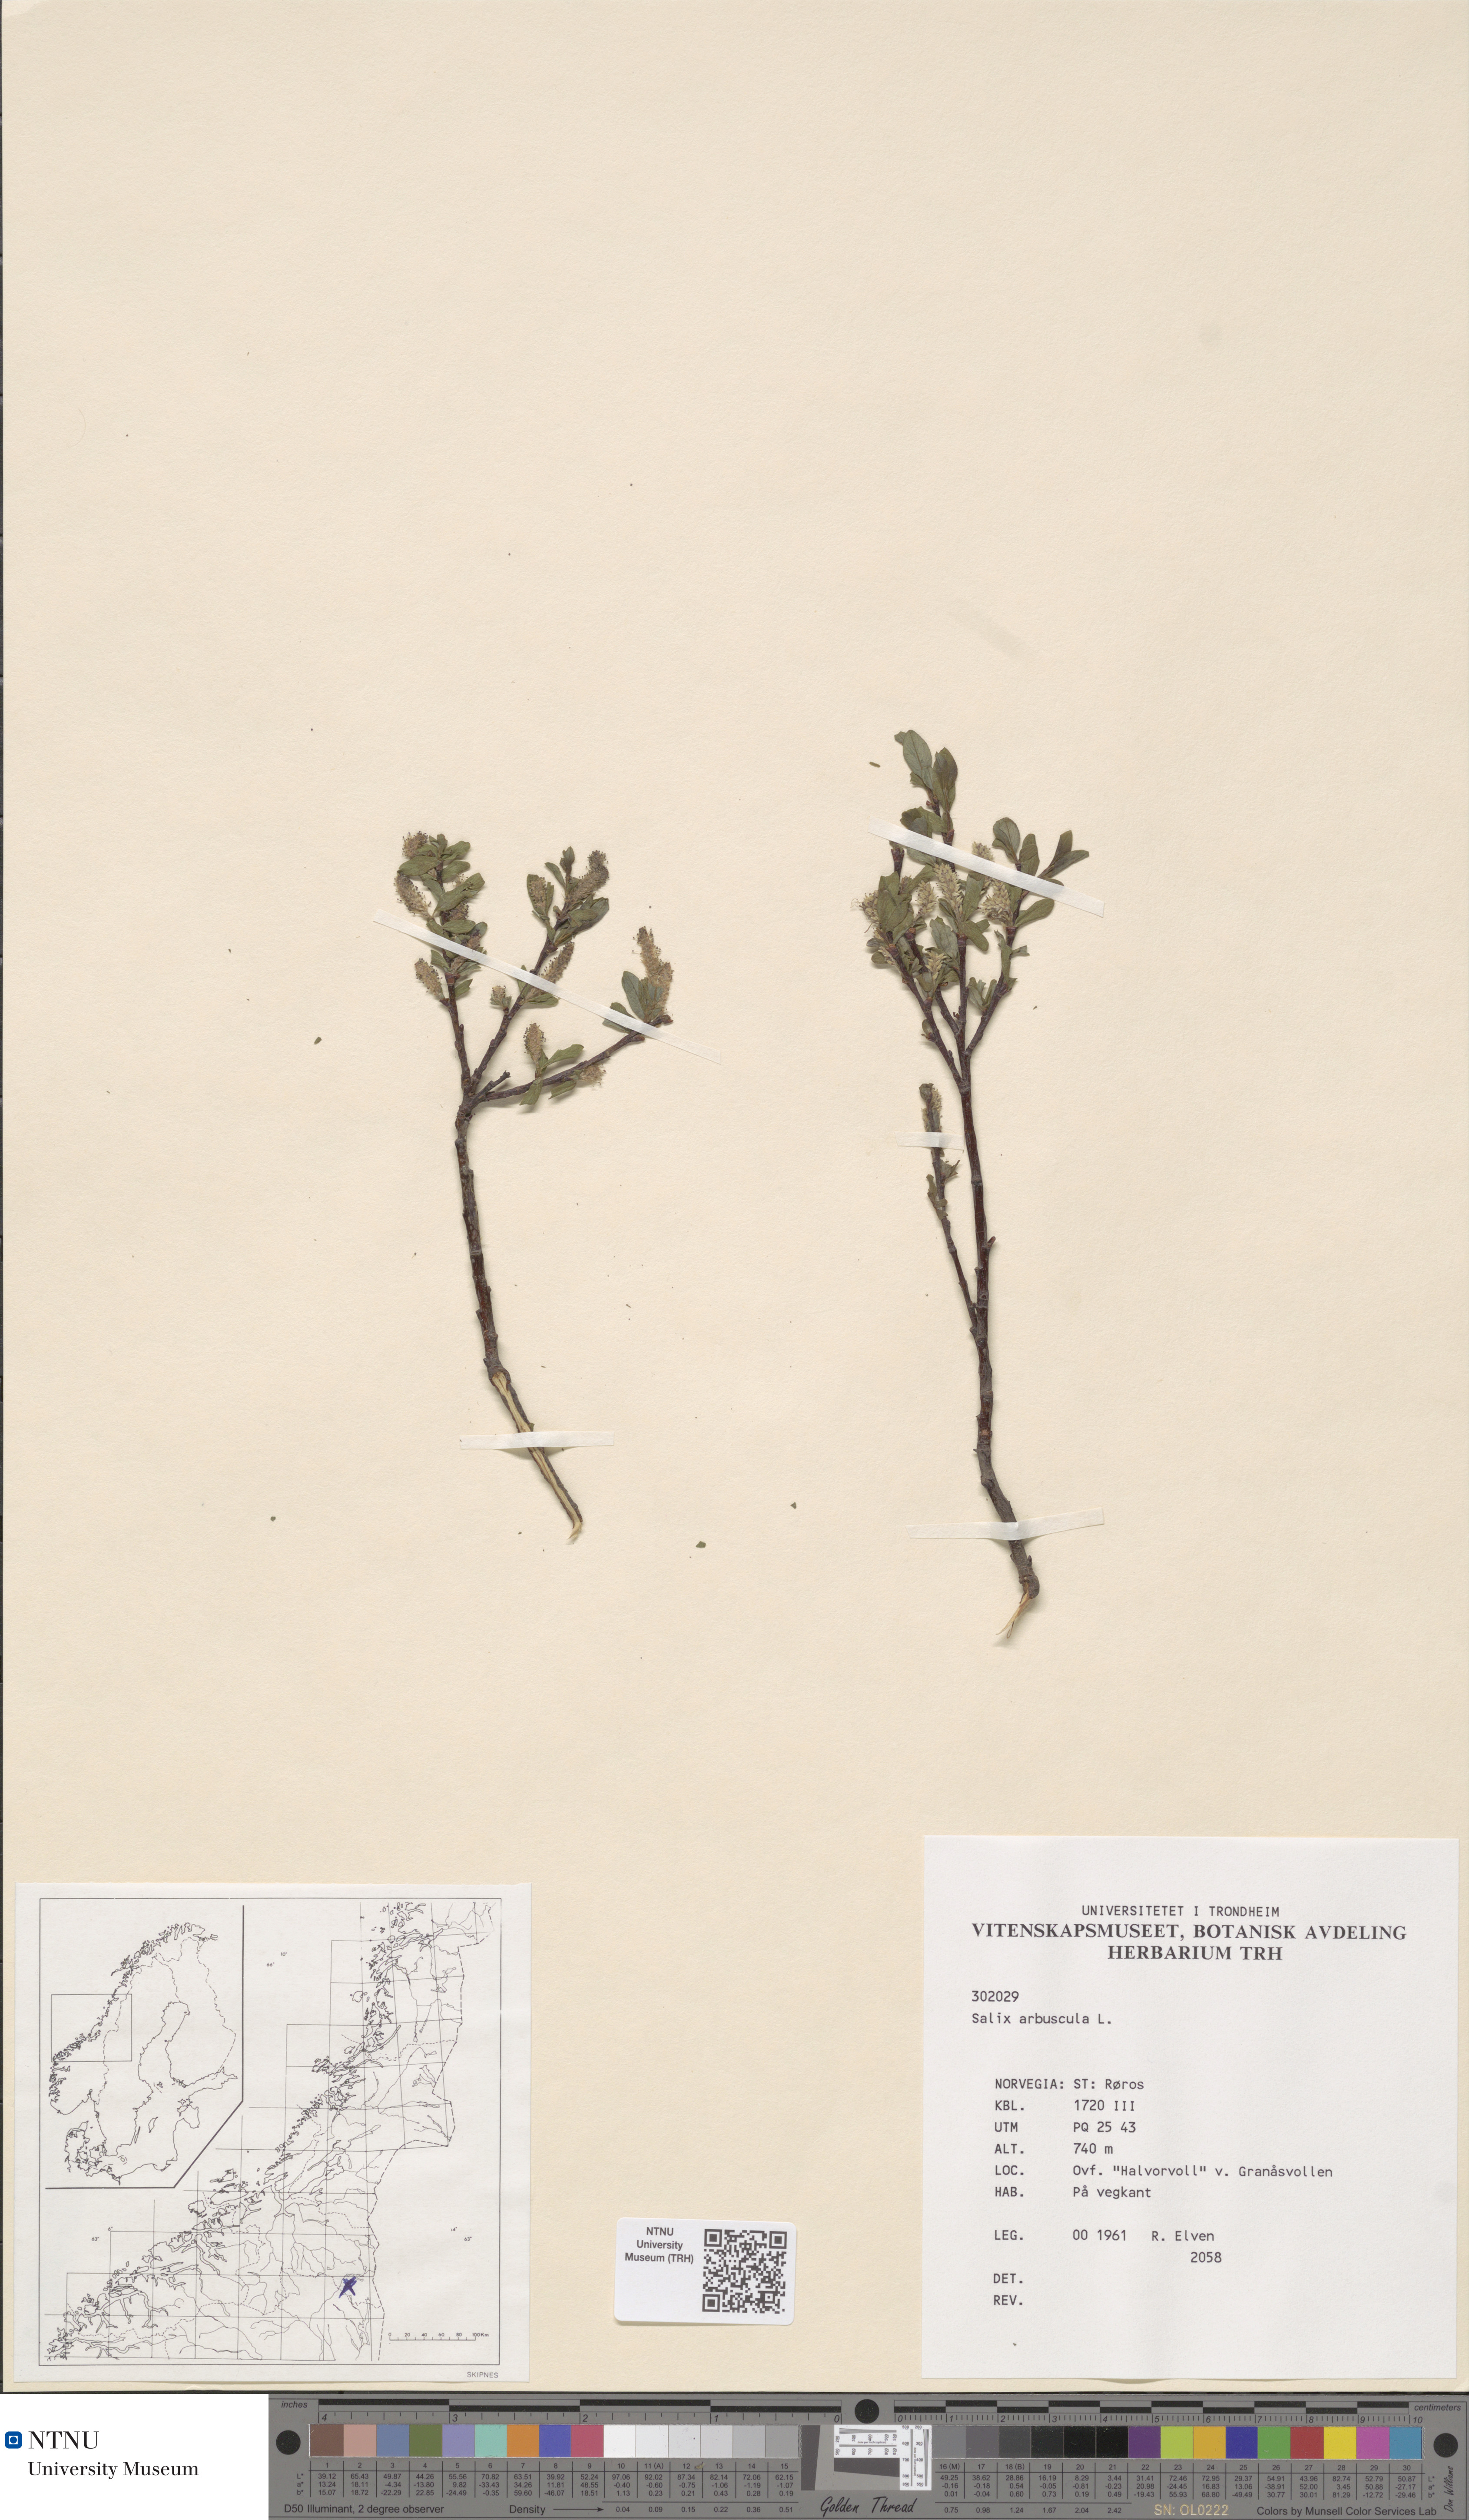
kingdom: Plantae
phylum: Tracheophyta
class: Magnoliopsida
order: Malpighiales
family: Salicaceae
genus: Salix
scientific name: Salix arbuscula
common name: Mountain willow
